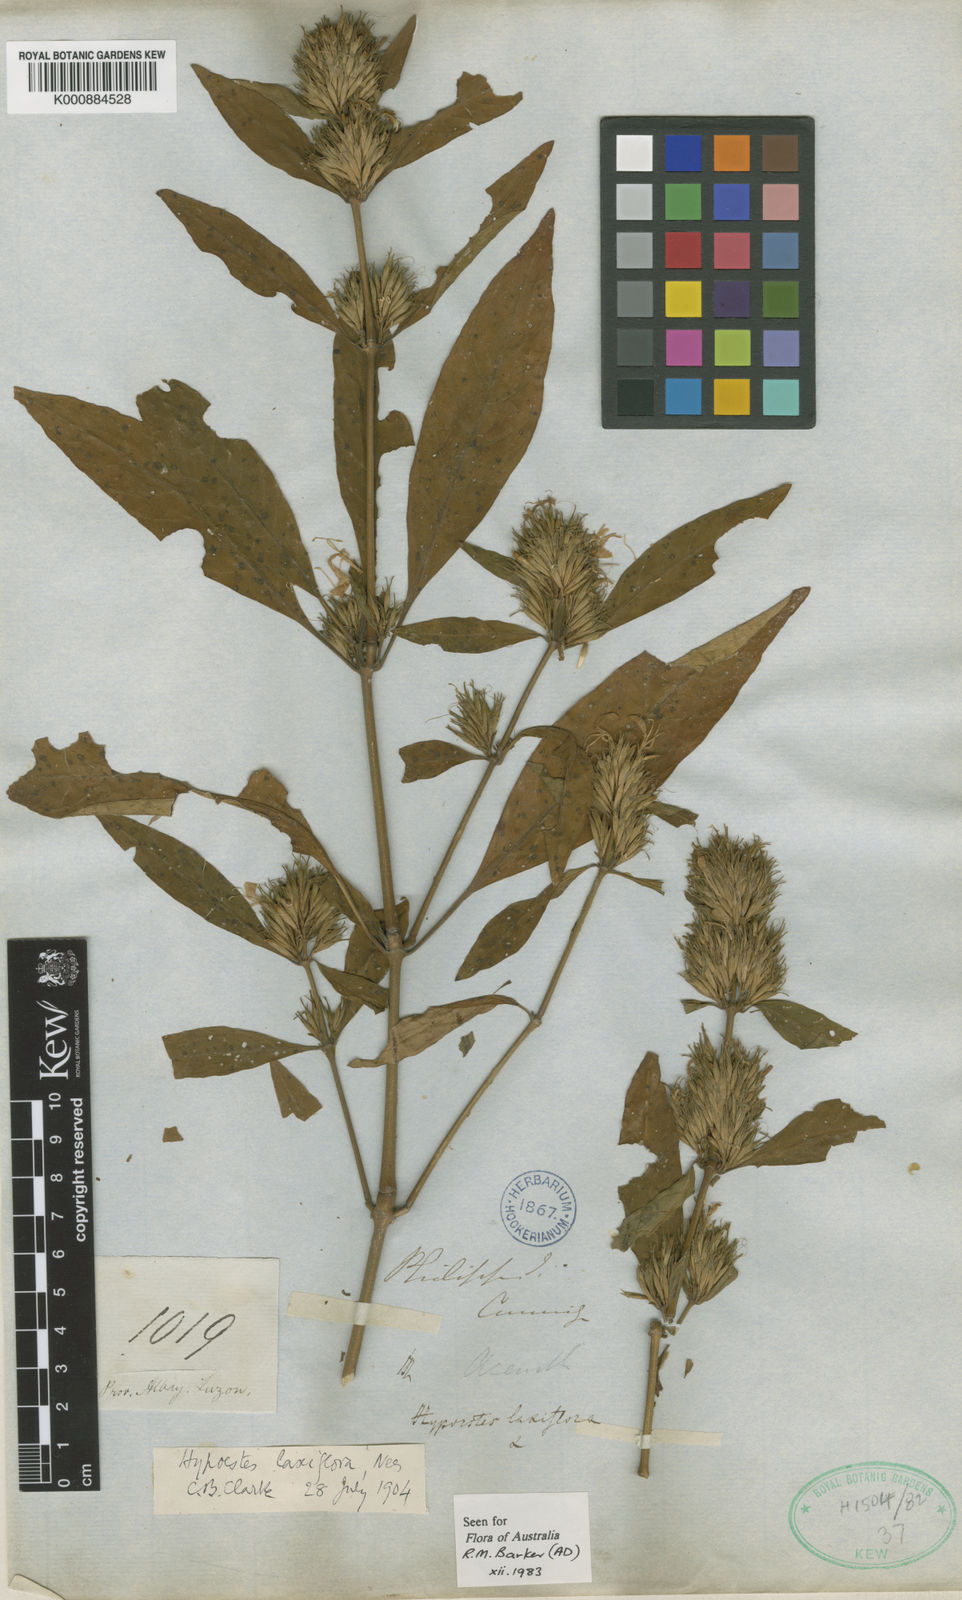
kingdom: Plantae
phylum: Tracheophyta
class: Magnoliopsida
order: Lamiales
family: Acanthaceae
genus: Hypoestes
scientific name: Hypoestes malaccensis
